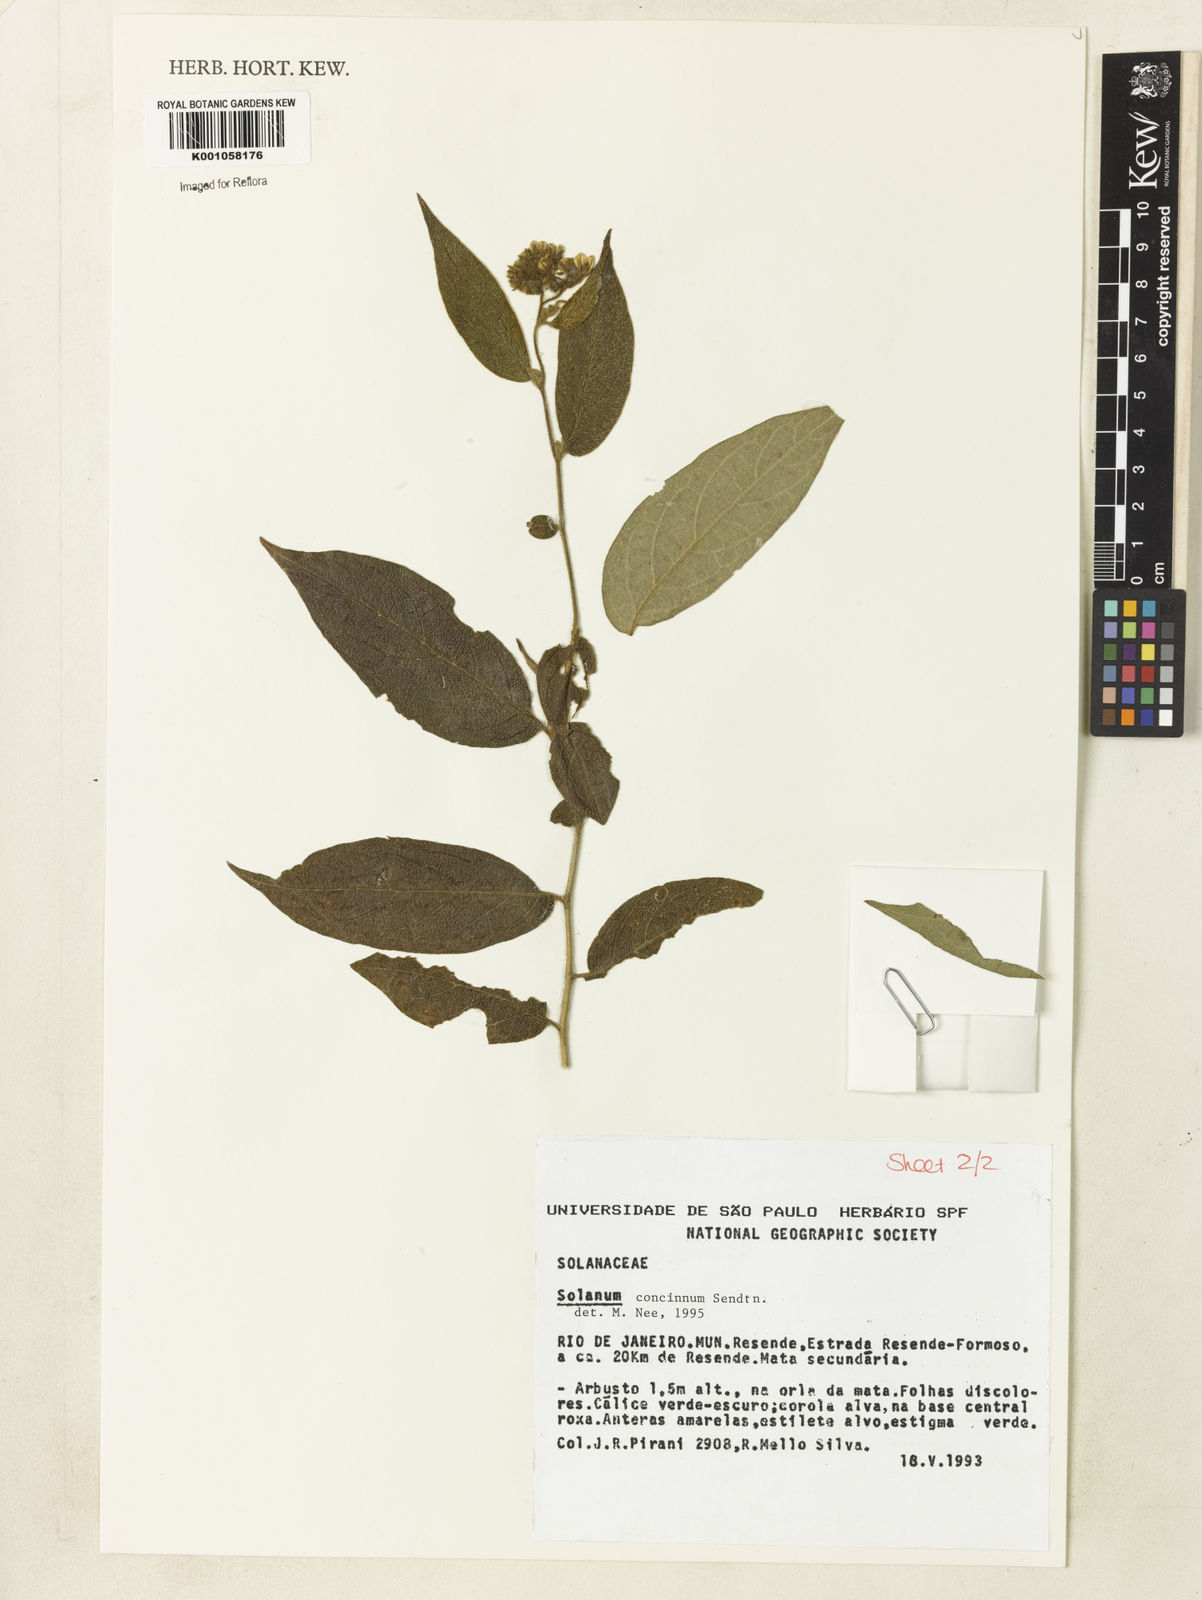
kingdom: Plantae
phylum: Tracheophyta
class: Magnoliopsida
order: Solanales
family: Solanaceae
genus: Solanum
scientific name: Solanum concinnum
